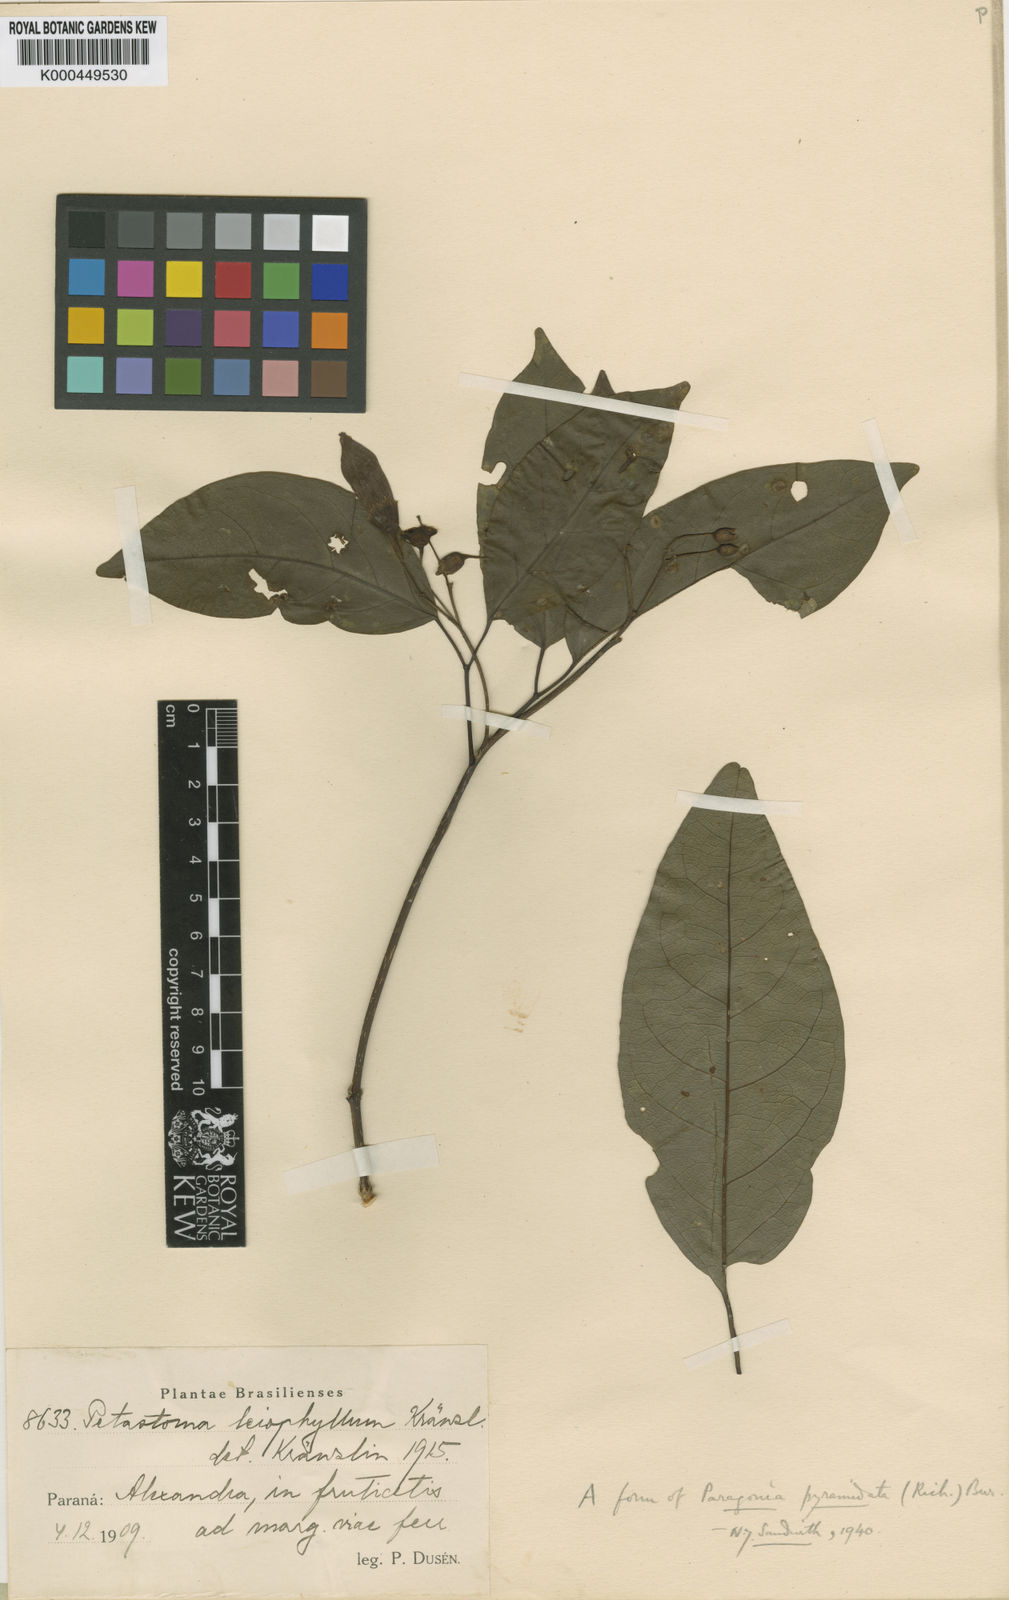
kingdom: Plantae
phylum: Tracheophyta
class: Magnoliopsida
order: Lamiales
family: Bignoniaceae
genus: Tanaecium
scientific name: Tanaecium pyramidatum
